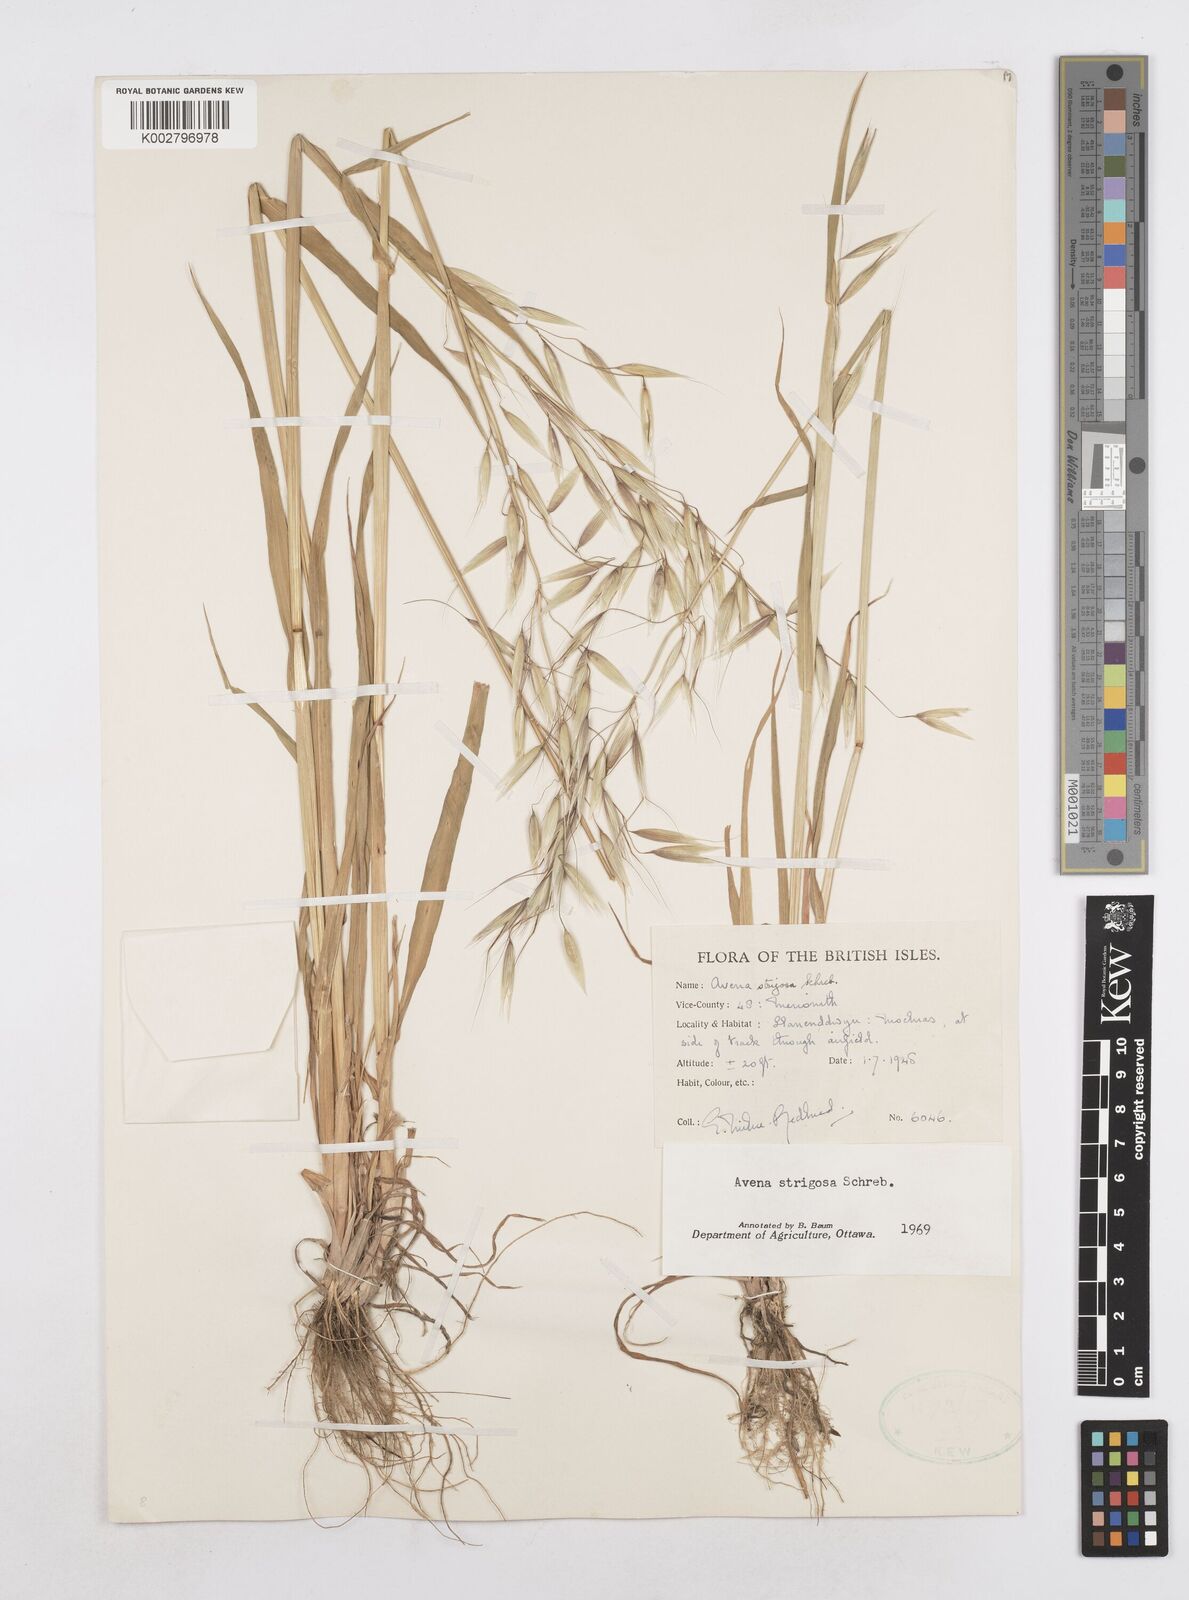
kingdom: Plantae
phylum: Tracheophyta
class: Liliopsida
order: Poales
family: Poaceae
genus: Avena
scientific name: Avena strigosa
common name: Bristle oat
